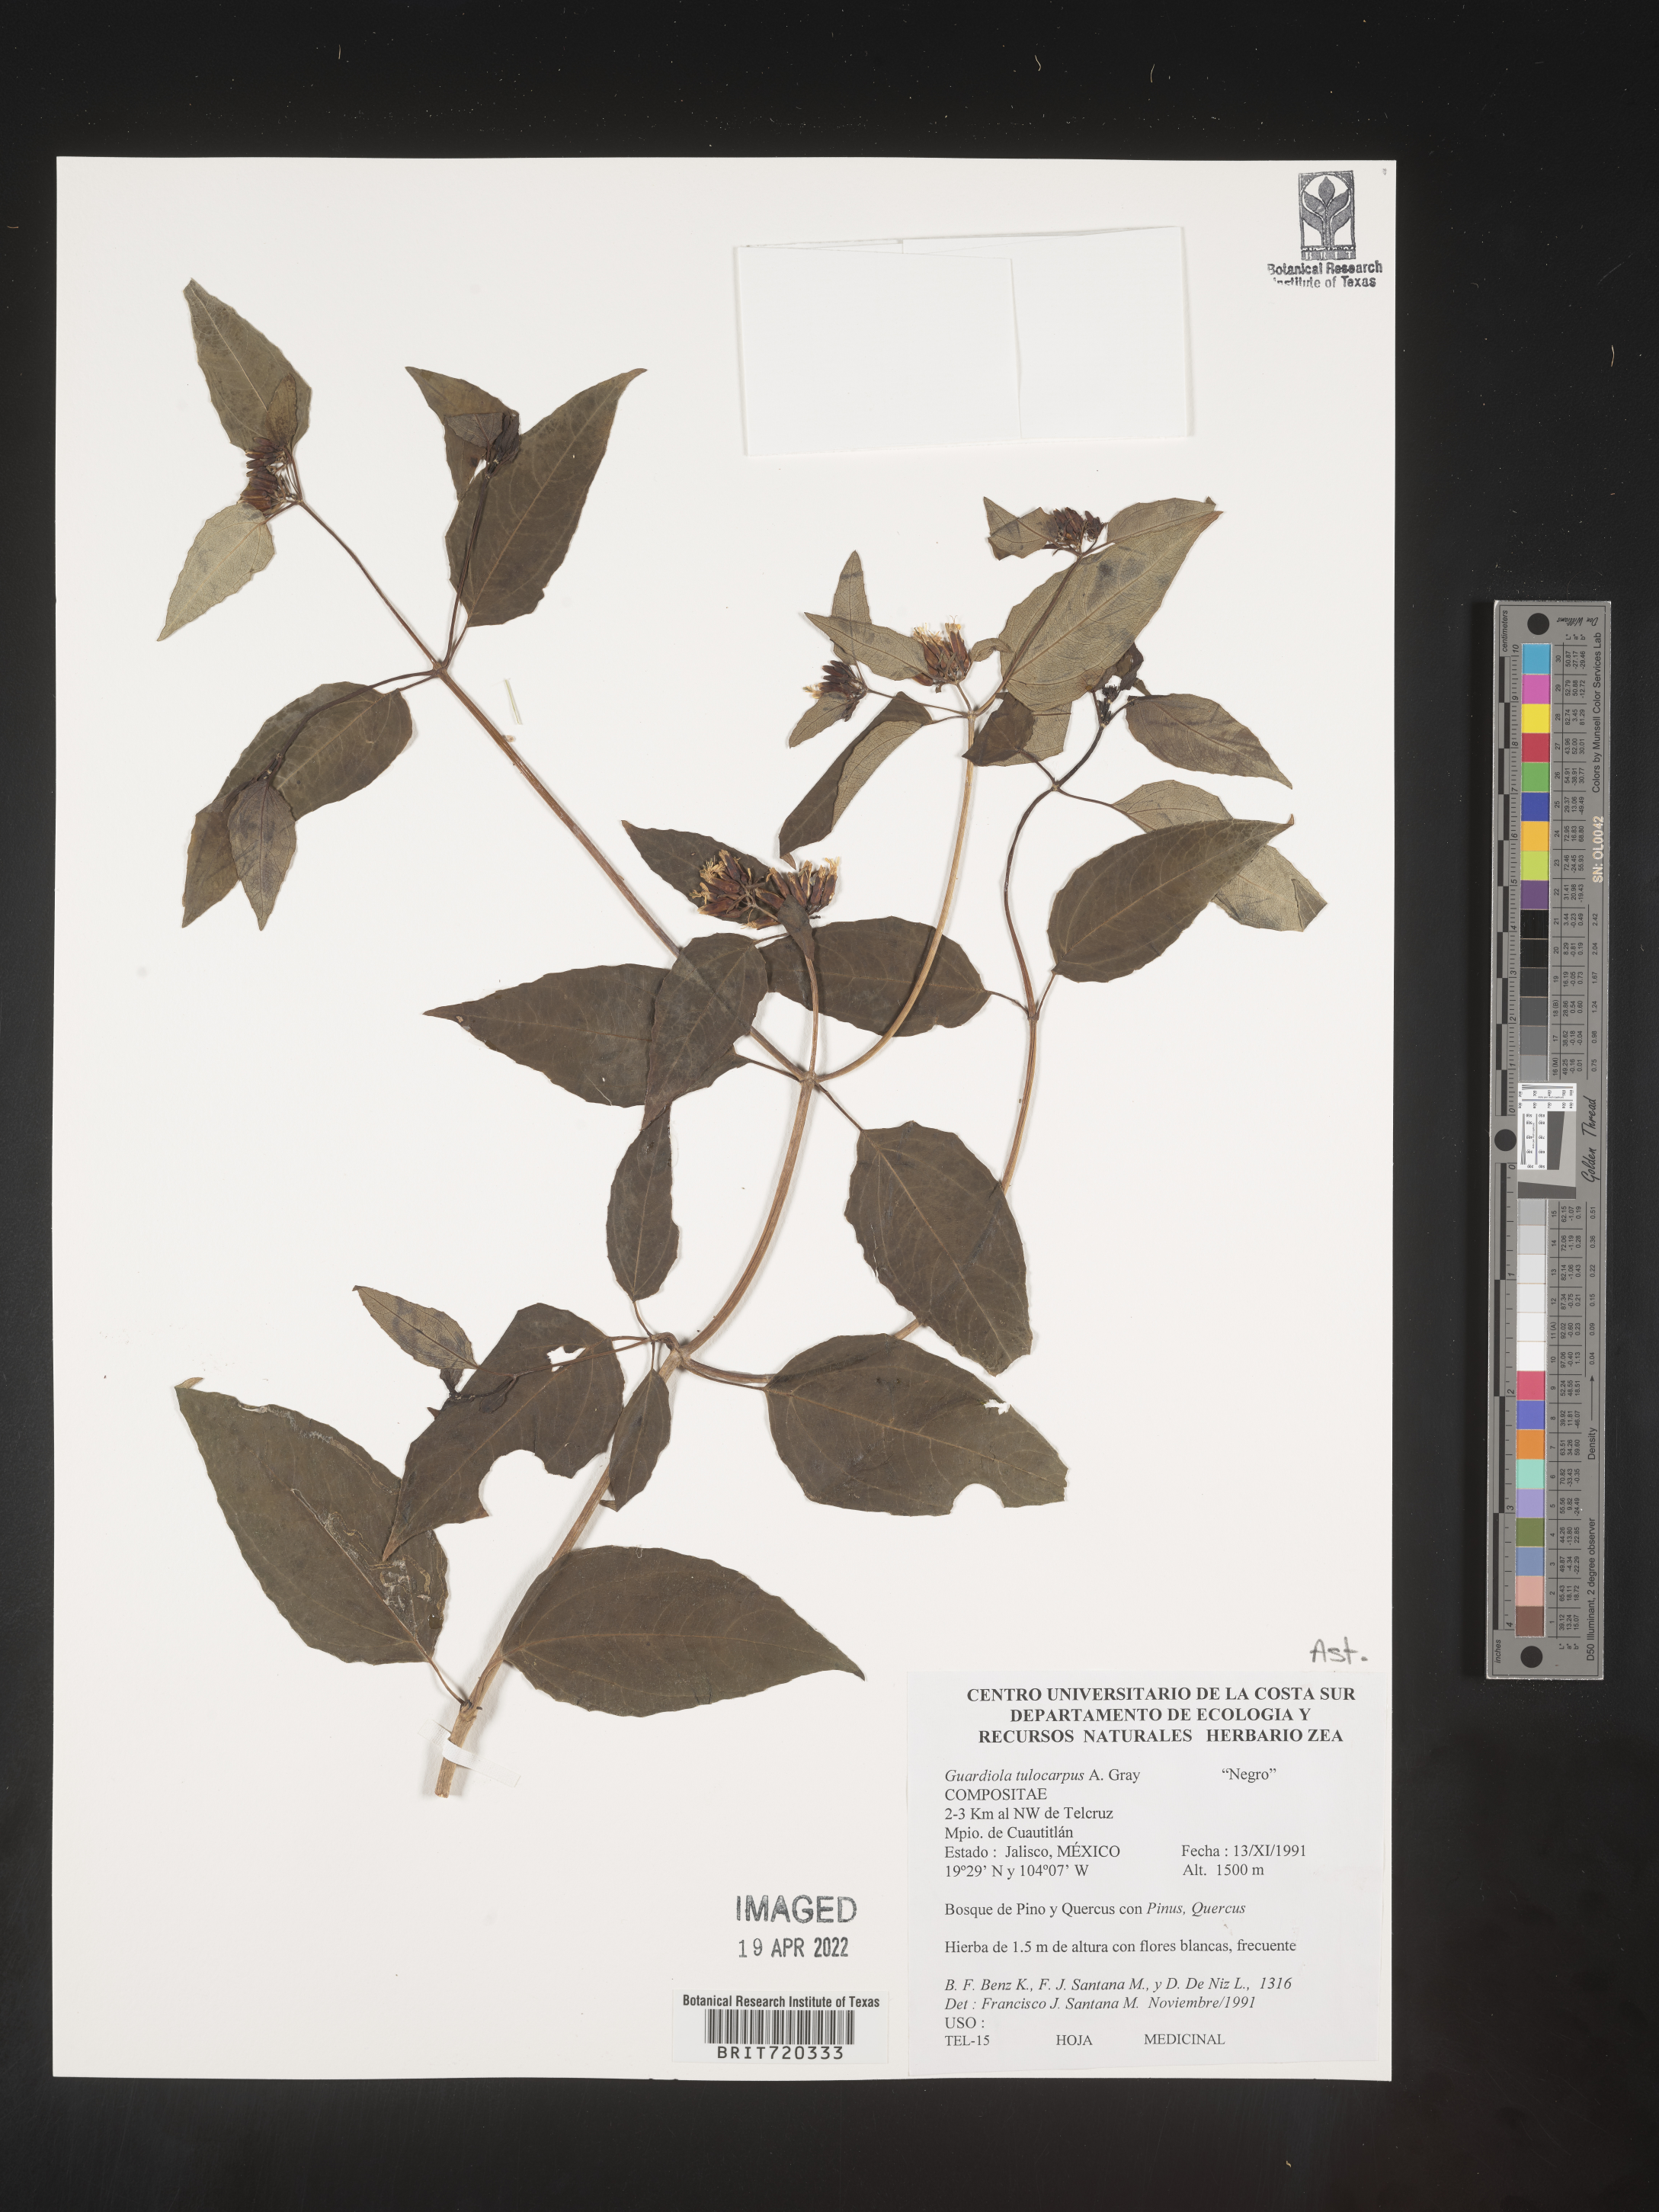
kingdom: Plantae
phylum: Tracheophyta
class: Magnoliopsida
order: Asterales
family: Asteraceae
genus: Guardiola
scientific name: Guardiola
